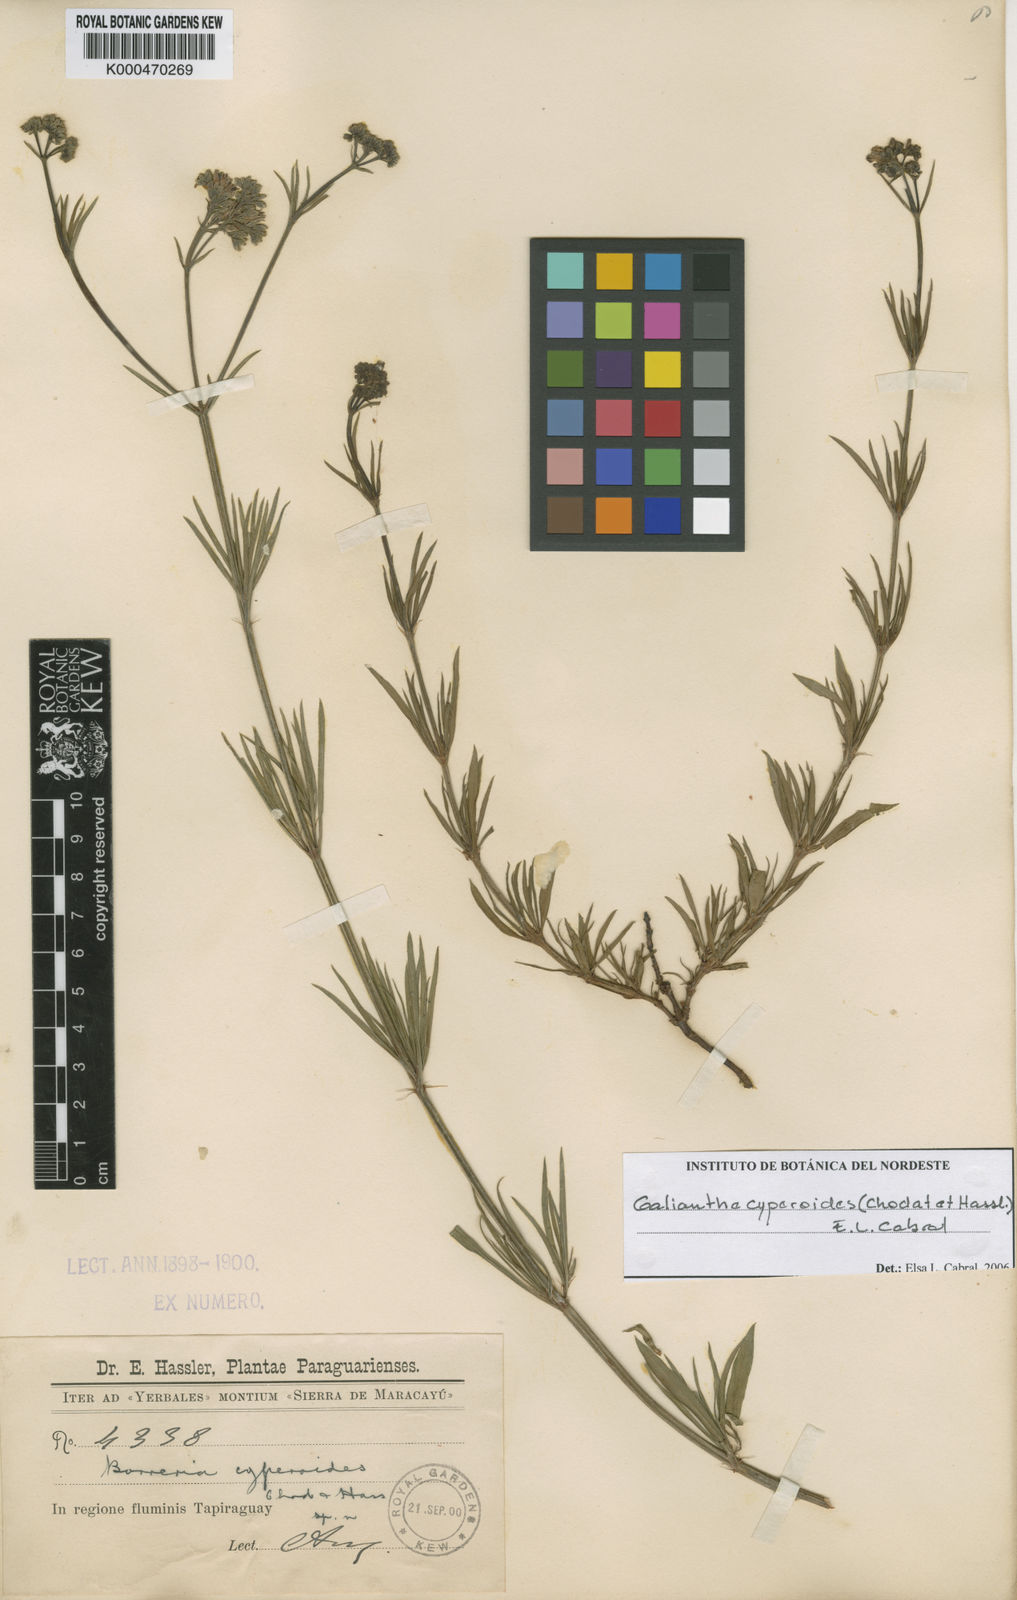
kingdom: Plantae
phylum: Tracheophyta
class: Magnoliopsida
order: Gentianales
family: Rubiaceae
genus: Galianthe
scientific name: Galianthe cyperoides
